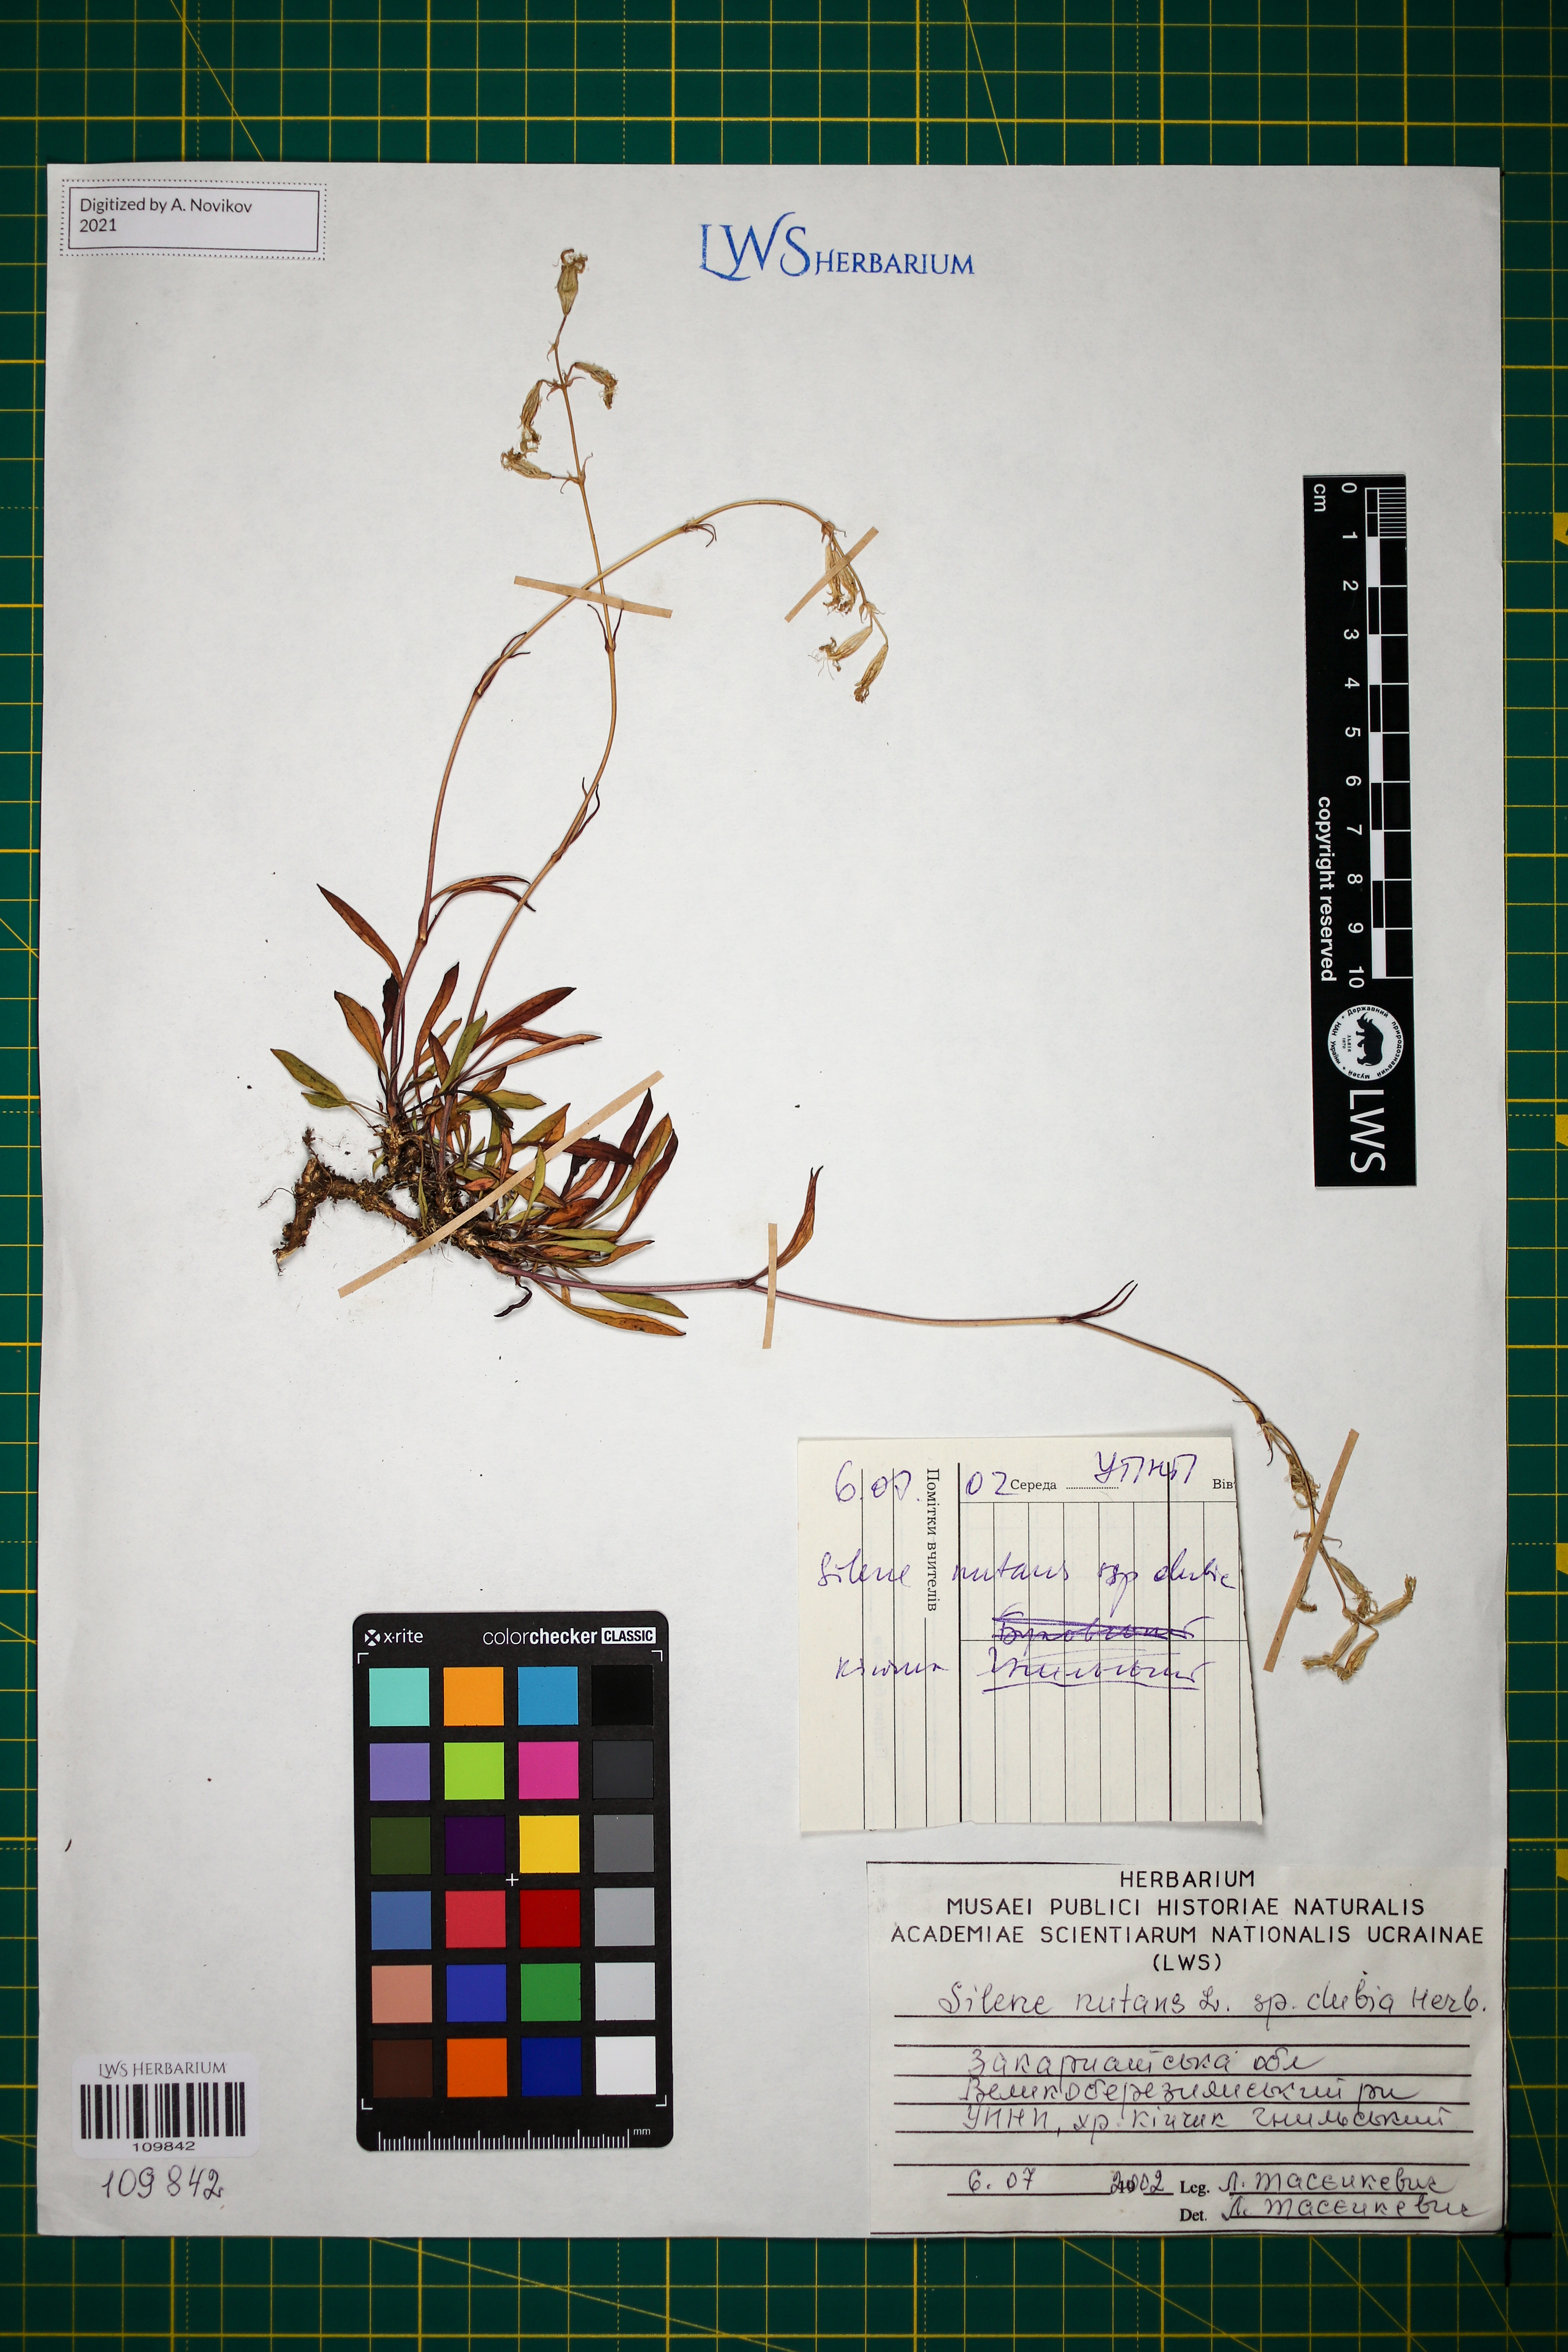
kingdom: Plantae
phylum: Tracheophyta
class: Magnoliopsida
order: Caryophyllales
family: Caryophyllaceae
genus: Silene
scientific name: Silene nutans
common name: Nottingham catchfly
